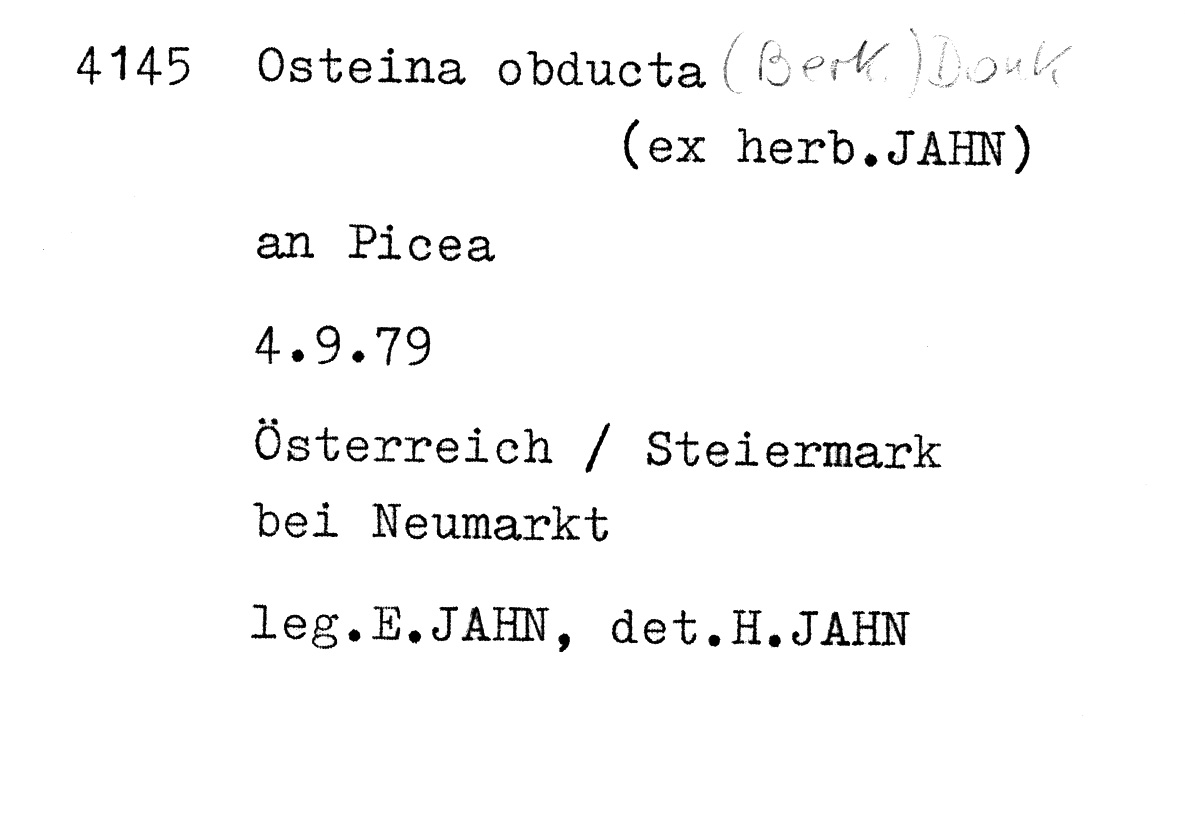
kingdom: Fungi
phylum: Basidiomycota
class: Agaricomycetes
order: Polyporales
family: Dacryobolaceae
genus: Osteina
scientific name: Osteina obducta
